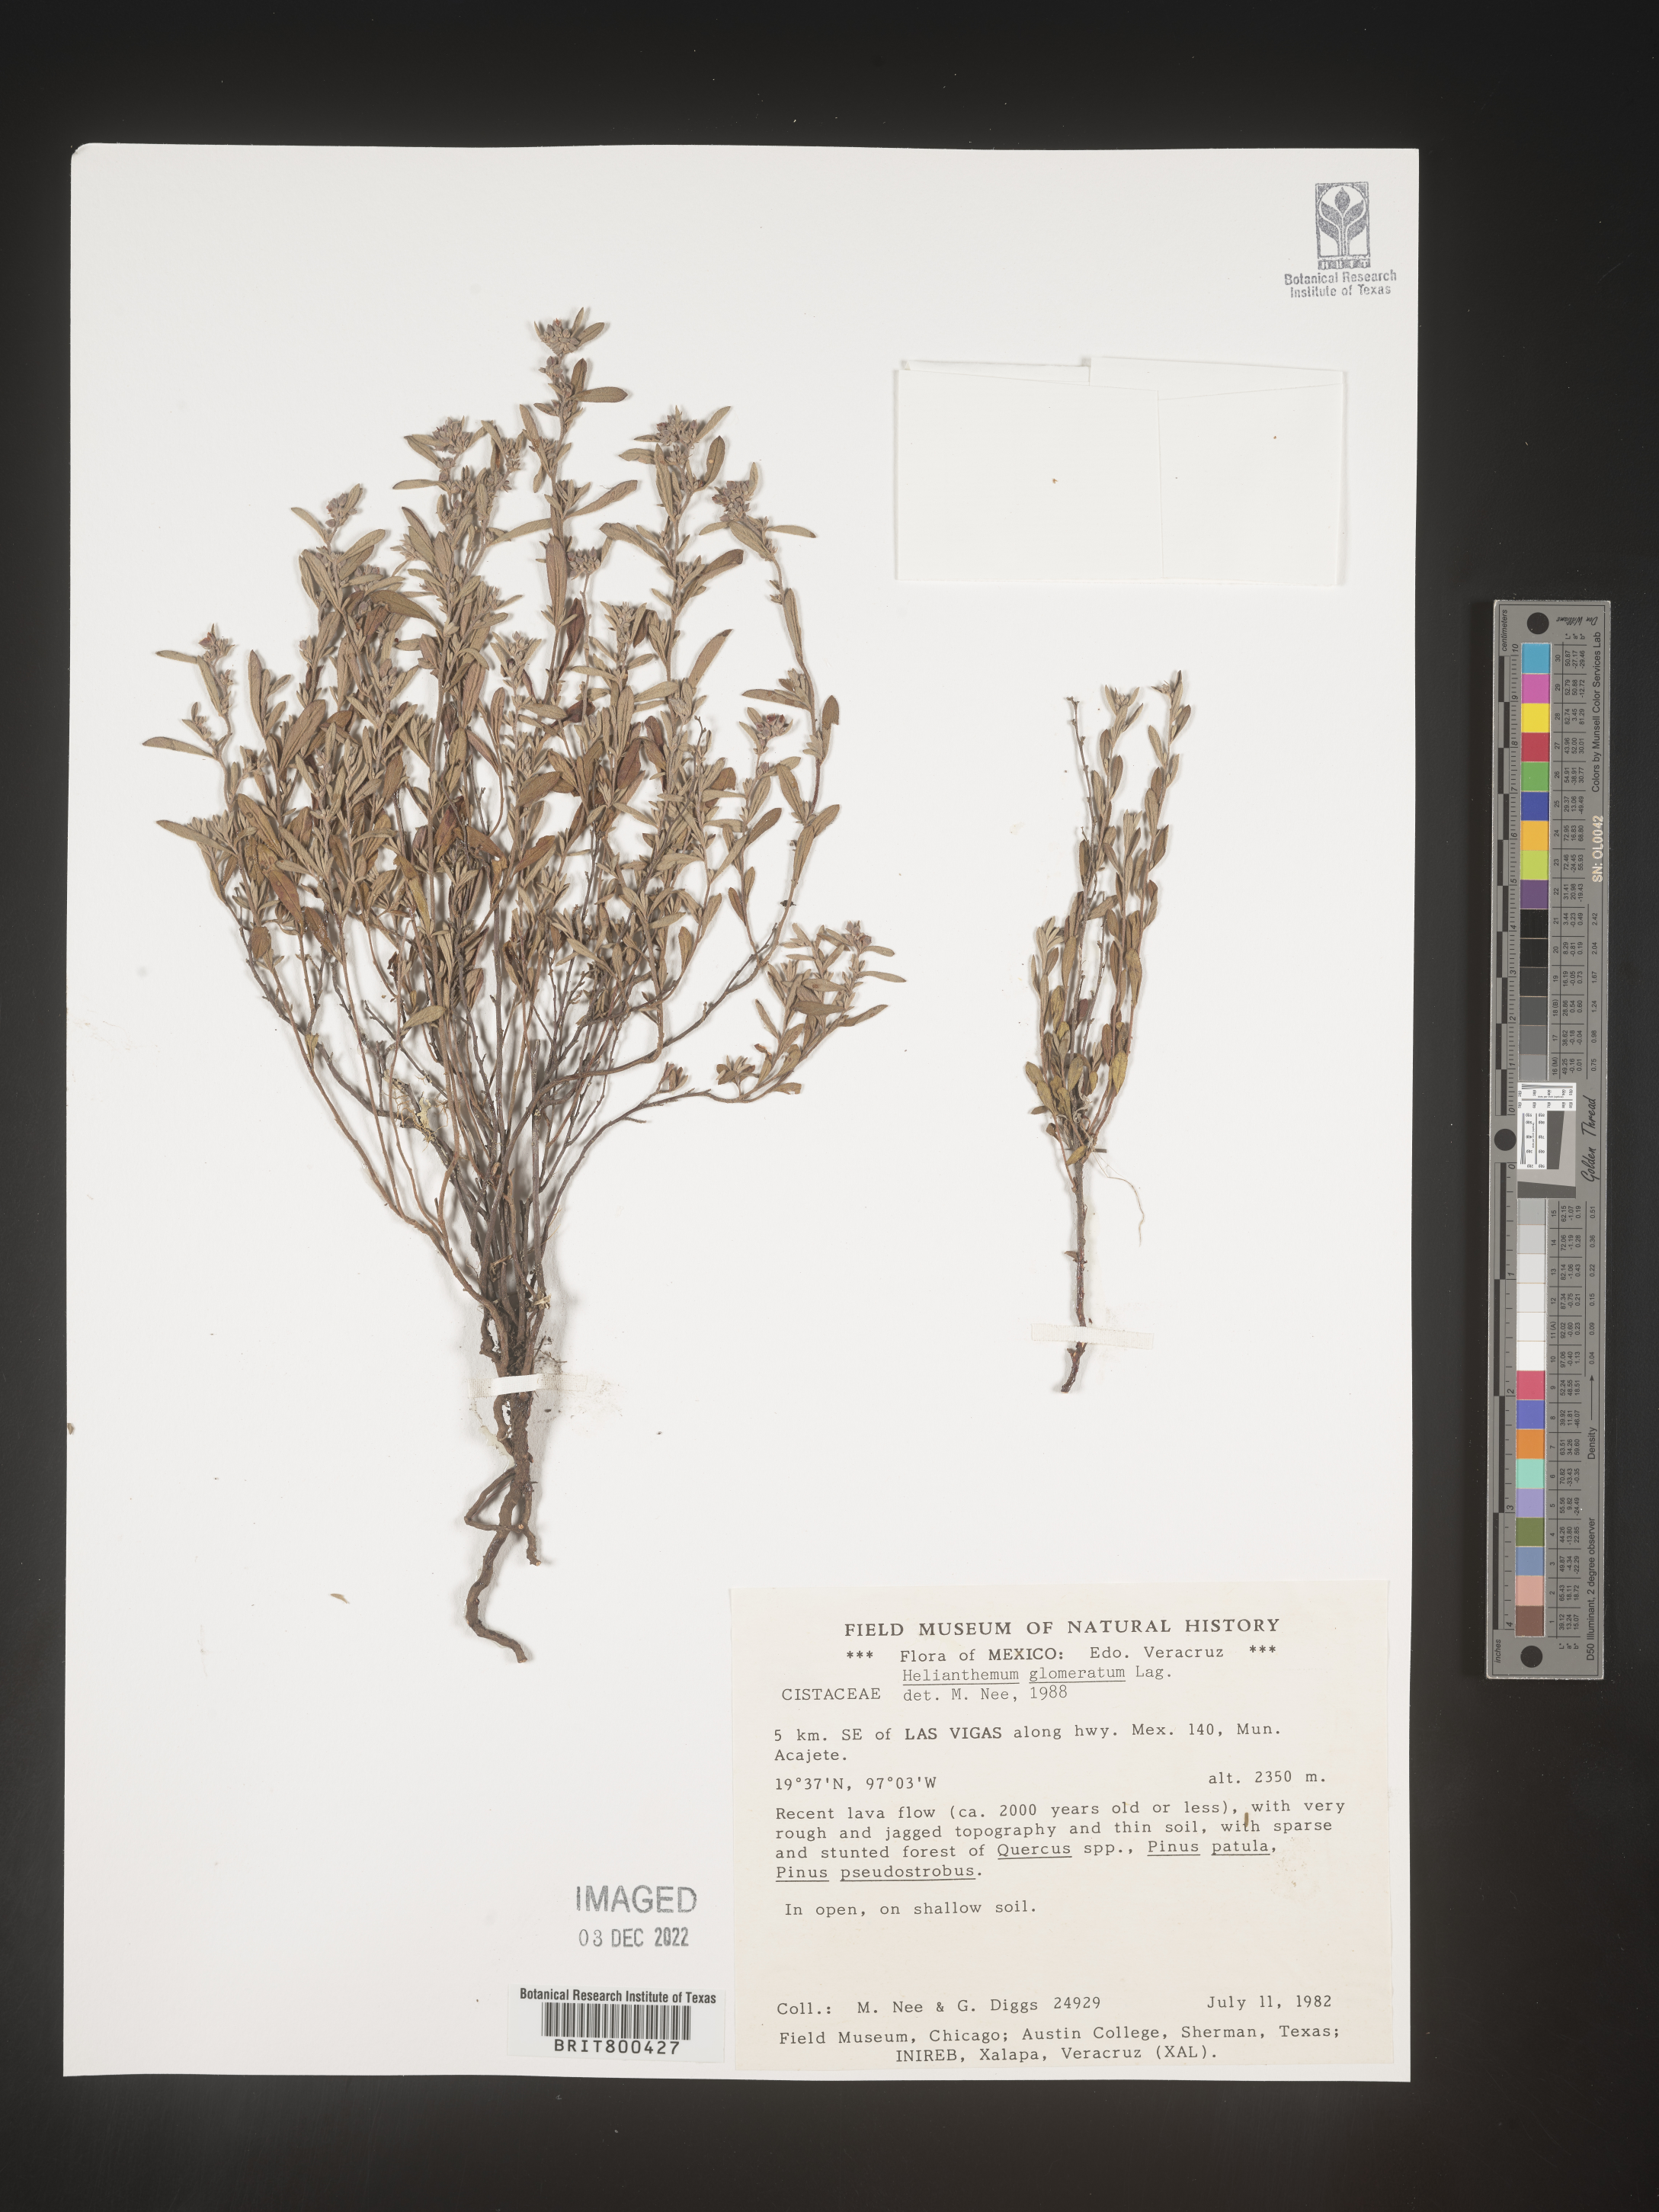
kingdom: Plantae
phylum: Tracheophyta
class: Magnoliopsida
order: Malvales
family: Cistaceae
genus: Helianthemum
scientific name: Helianthemum
